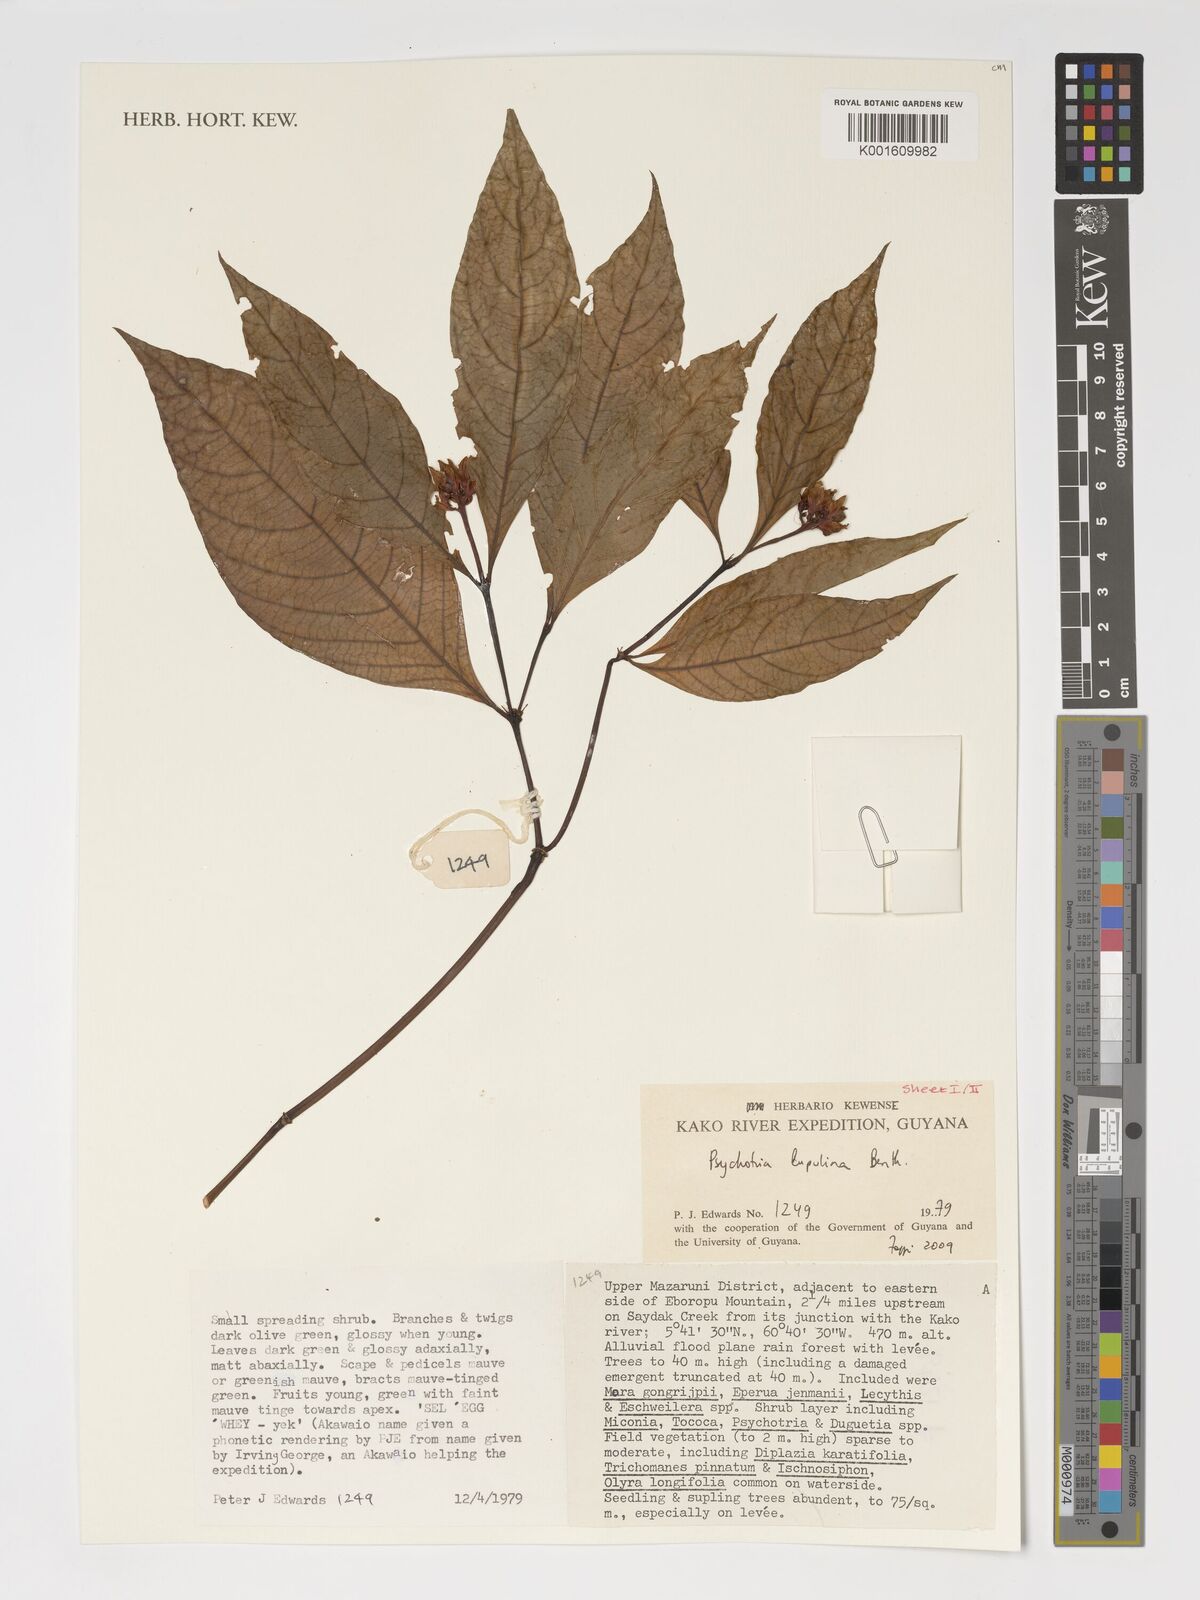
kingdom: Plantae
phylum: Tracheophyta
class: Magnoliopsida
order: Gentianales
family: Rubiaceae
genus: Palicourea
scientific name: Palicourea justiciifolia
